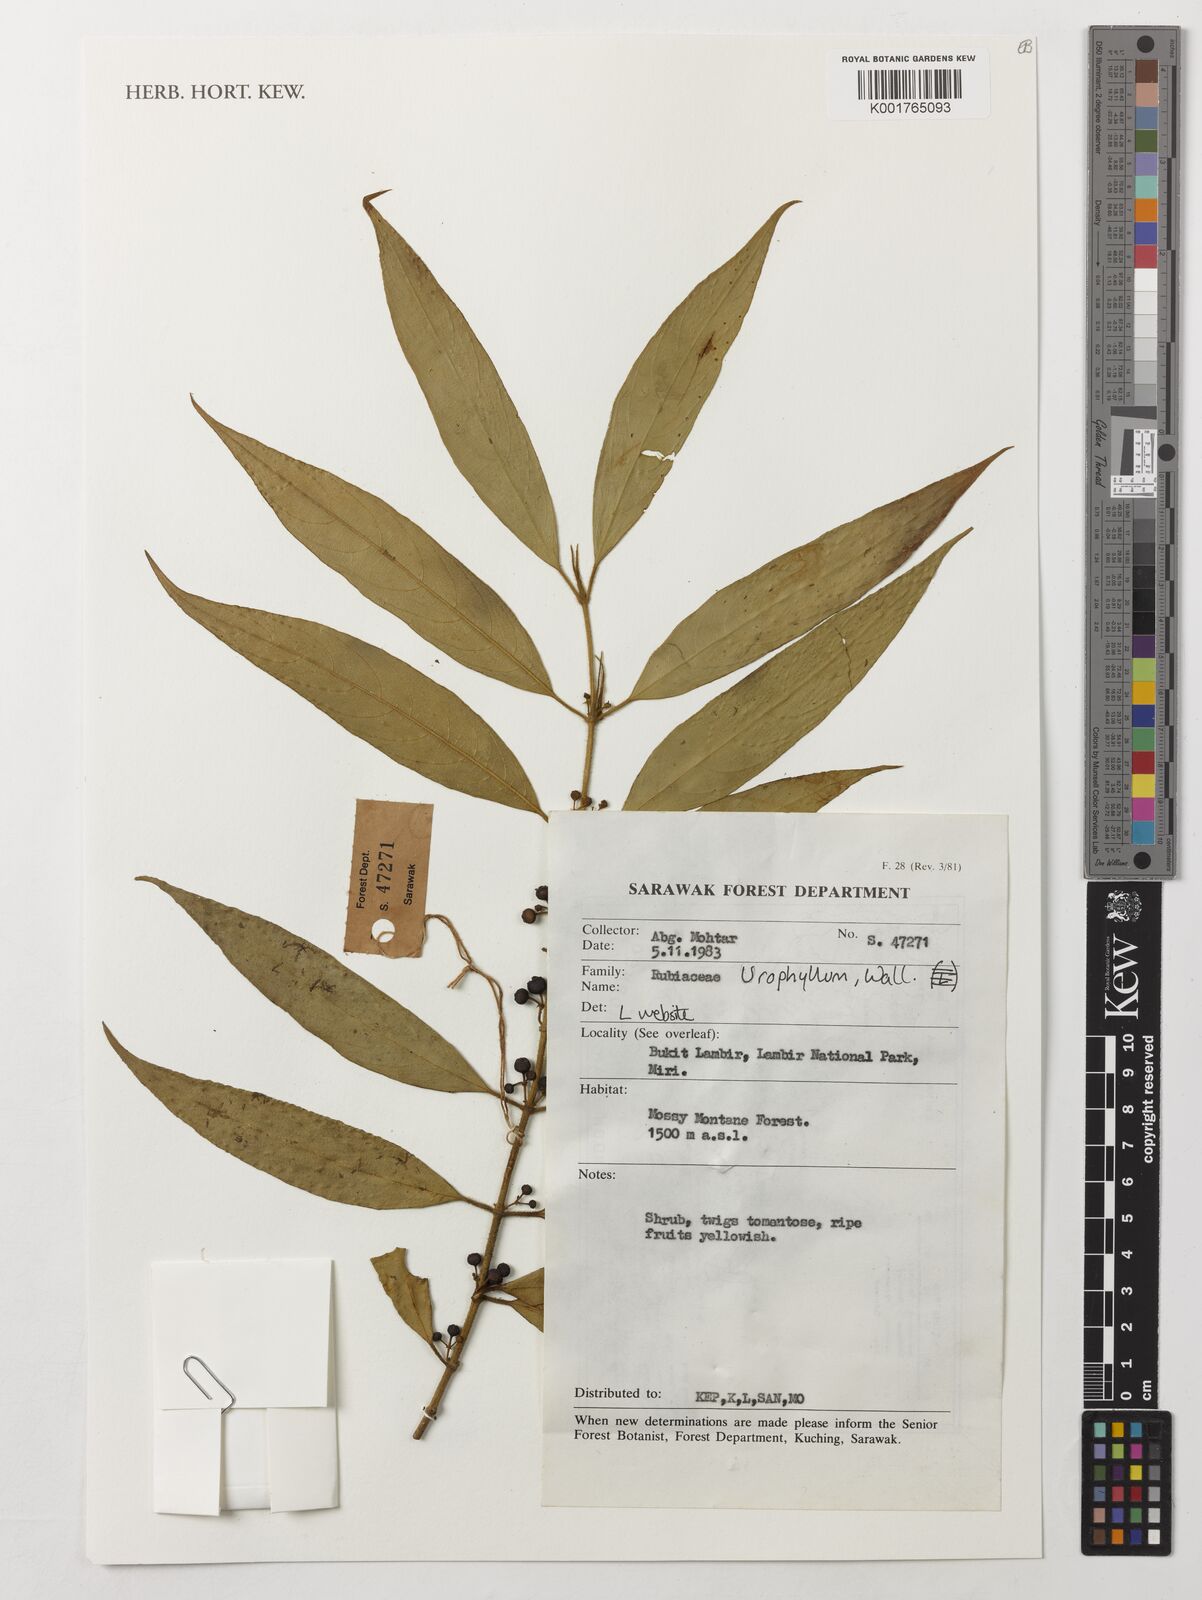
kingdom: Plantae
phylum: Tracheophyta
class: Magnoliopsida
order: Gentianales
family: Rubiaceae
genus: Urophyllum
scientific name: Urophyllum
